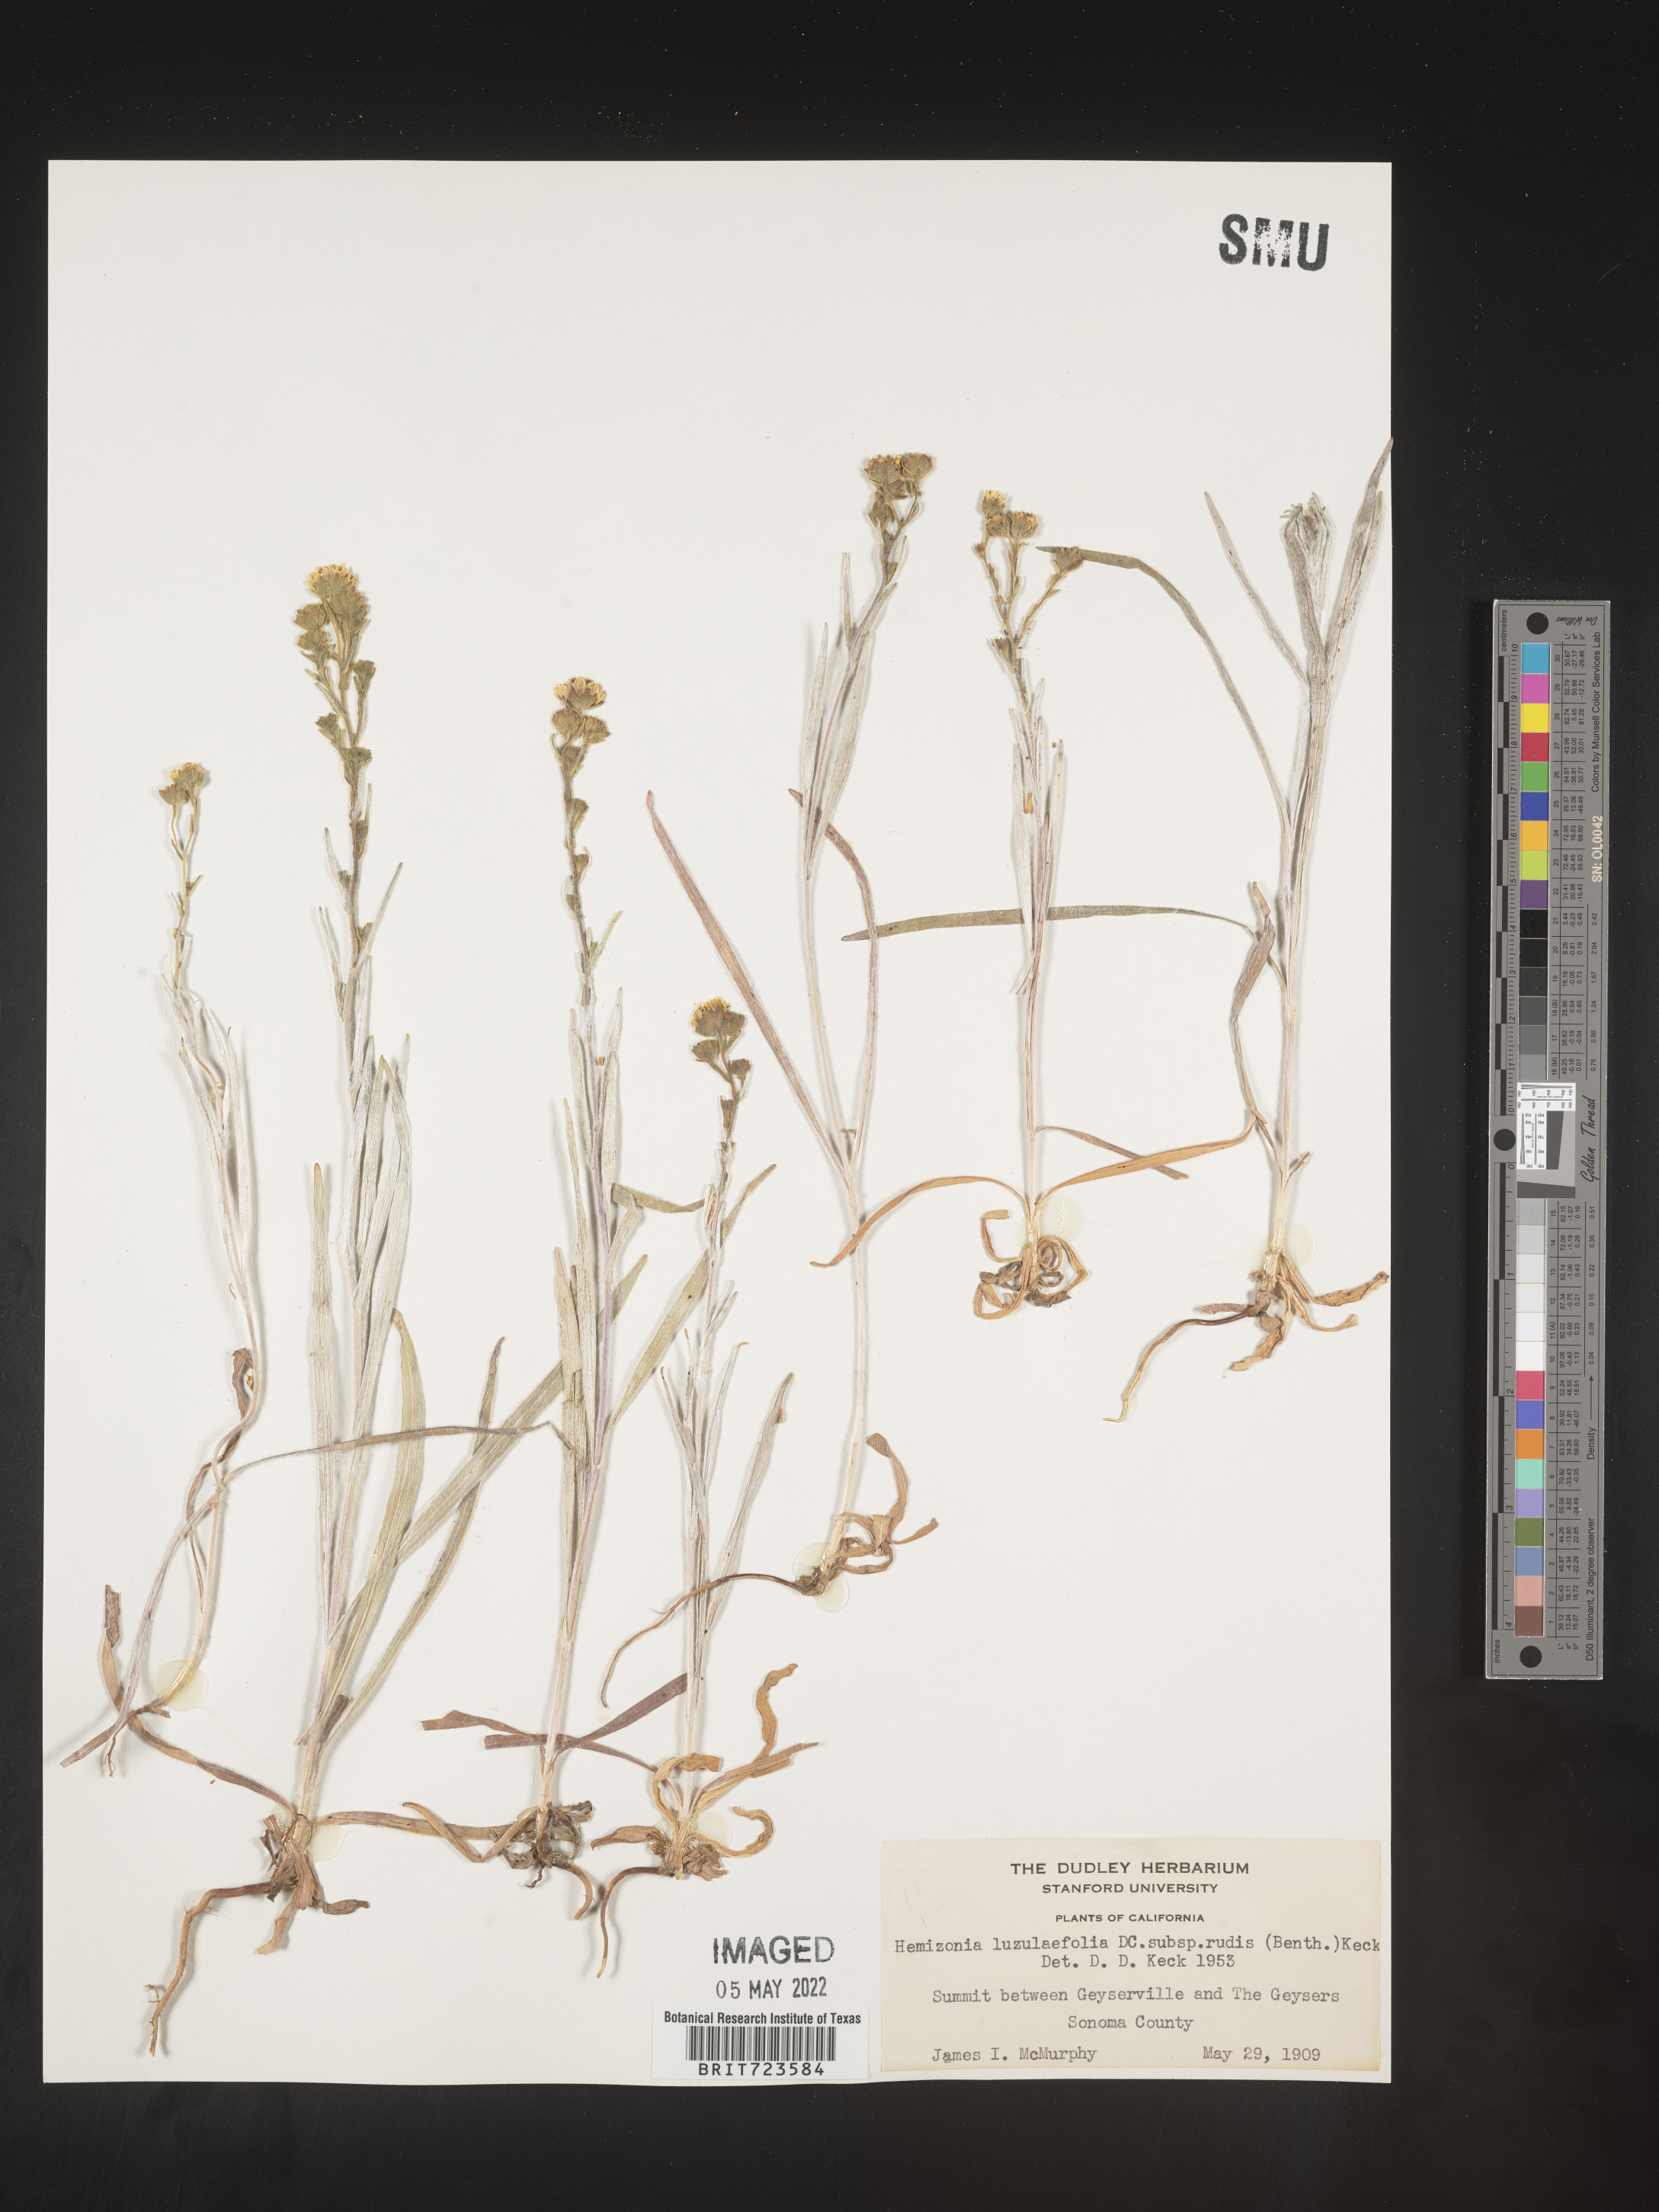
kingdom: Plantae
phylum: Tracheophyta
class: Magnoliopsida
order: Asterales
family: Asteraceae
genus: Hemizonia
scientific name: Hemizonia
